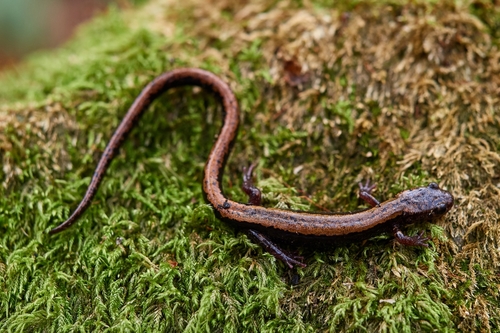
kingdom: Animalia
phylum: Chordata
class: Amphibia
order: Caudata
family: Salamandridae
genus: Chioglossa
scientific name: Chioglossa lusitanica
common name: Gold-striped salamander
